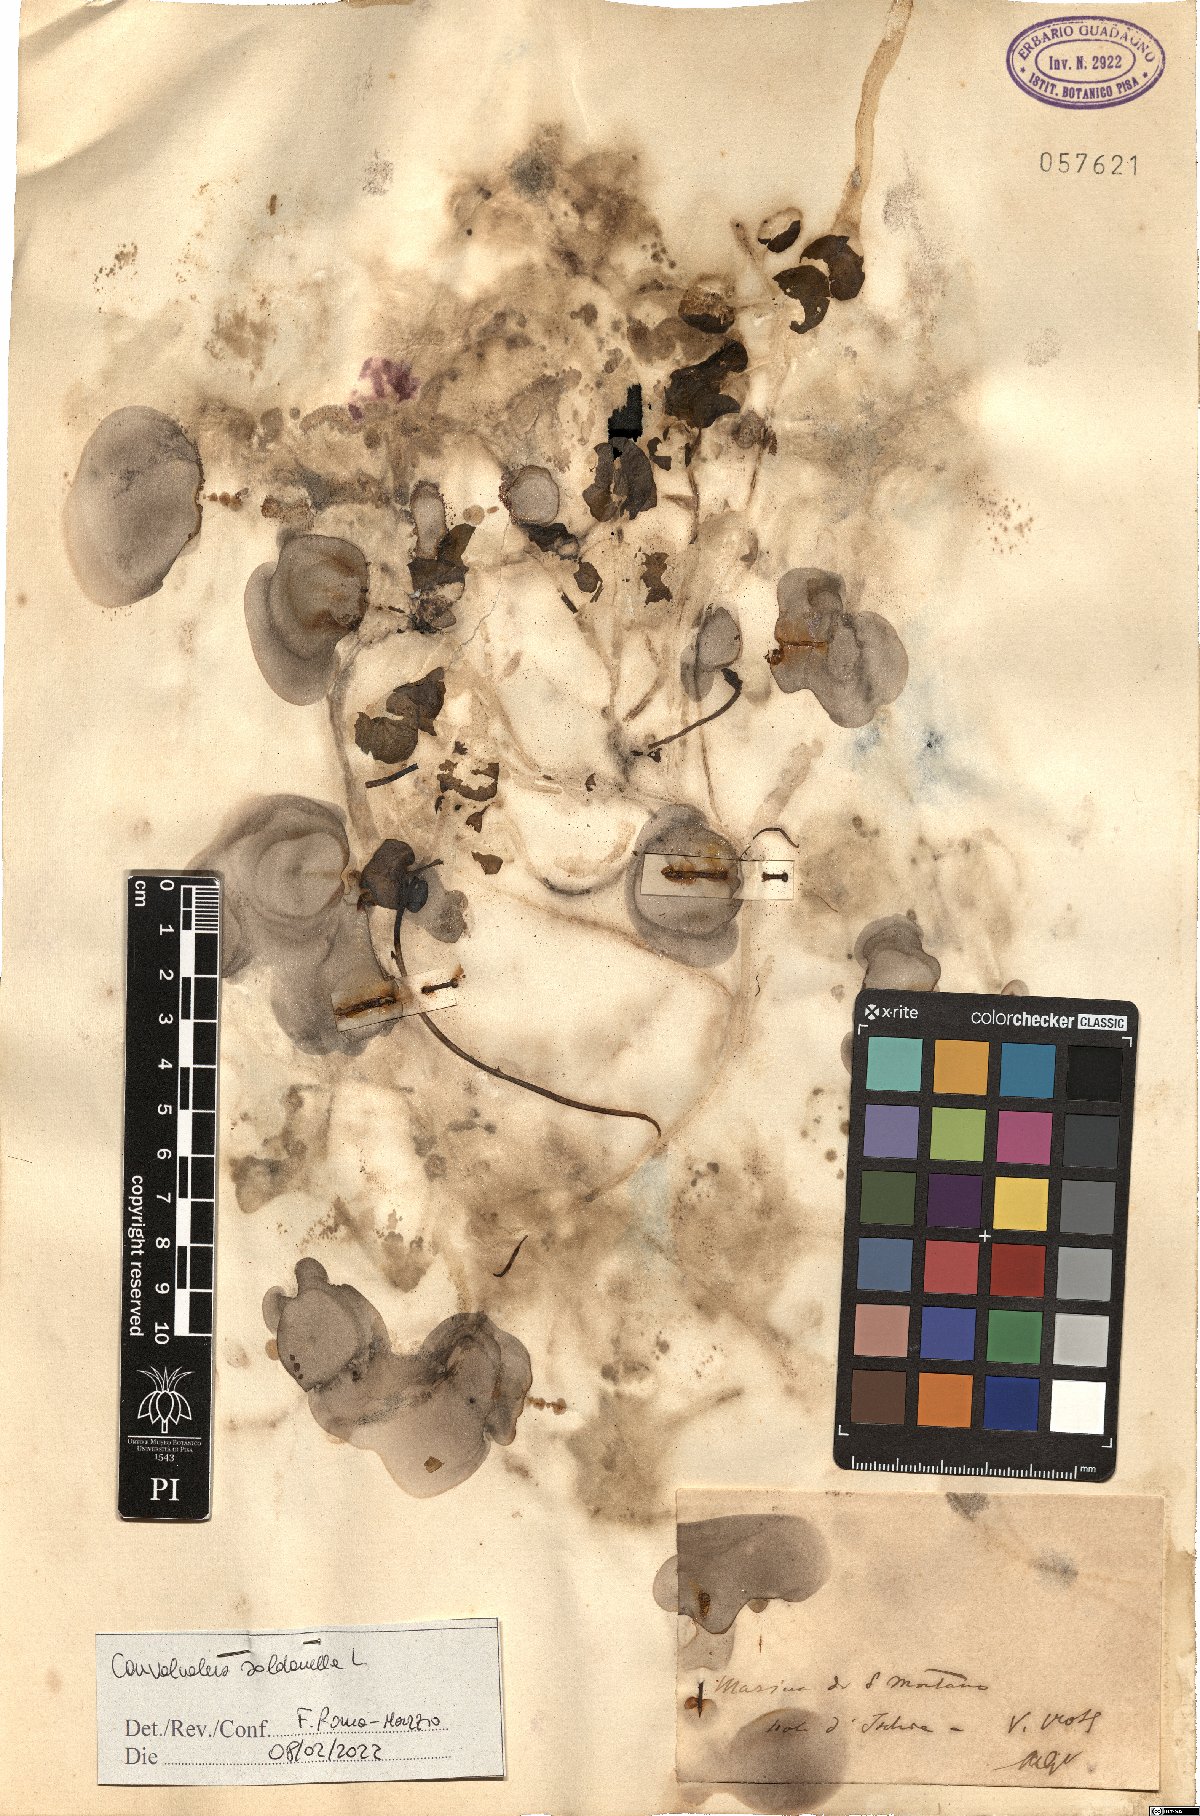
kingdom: Plantae
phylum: Tracheophyta
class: Magnoliopsida
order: Solanales
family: Convolvulaceae
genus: Convolvulus
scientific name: Convolvulus
